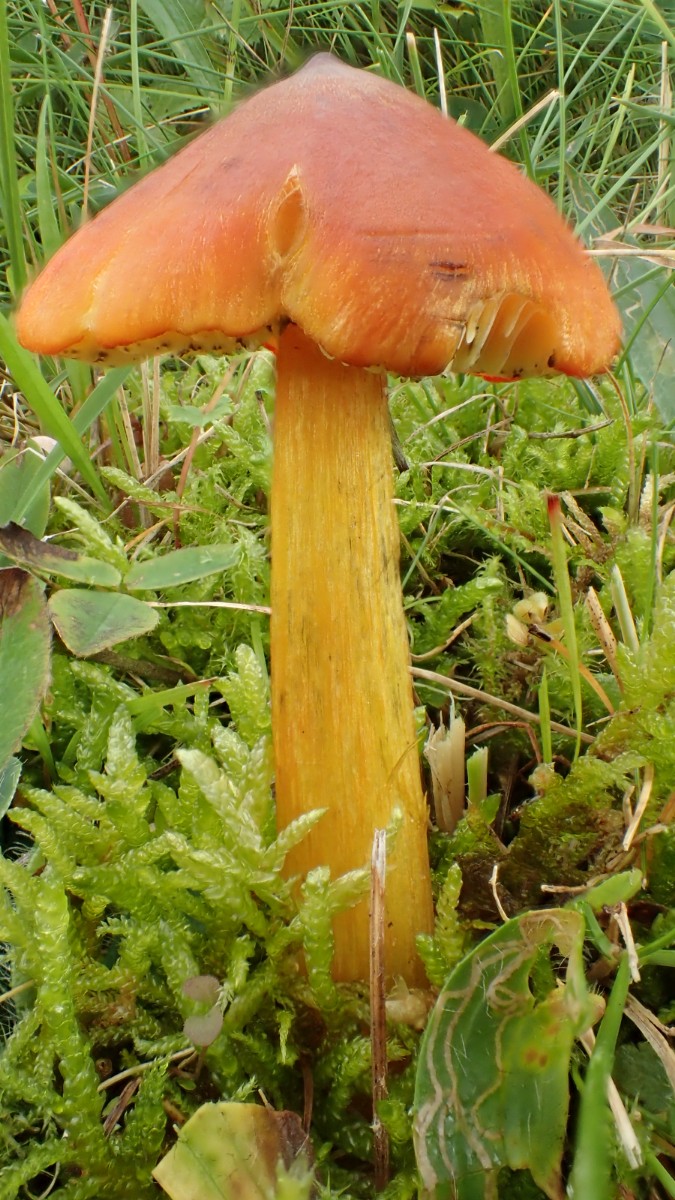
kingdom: Fungi
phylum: Basidiomycota
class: Agaricomycetes
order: Agaricales
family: Hygrophoraceae
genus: Hygrocybe
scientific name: Hygrocybe conica
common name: kegle-vokshat
